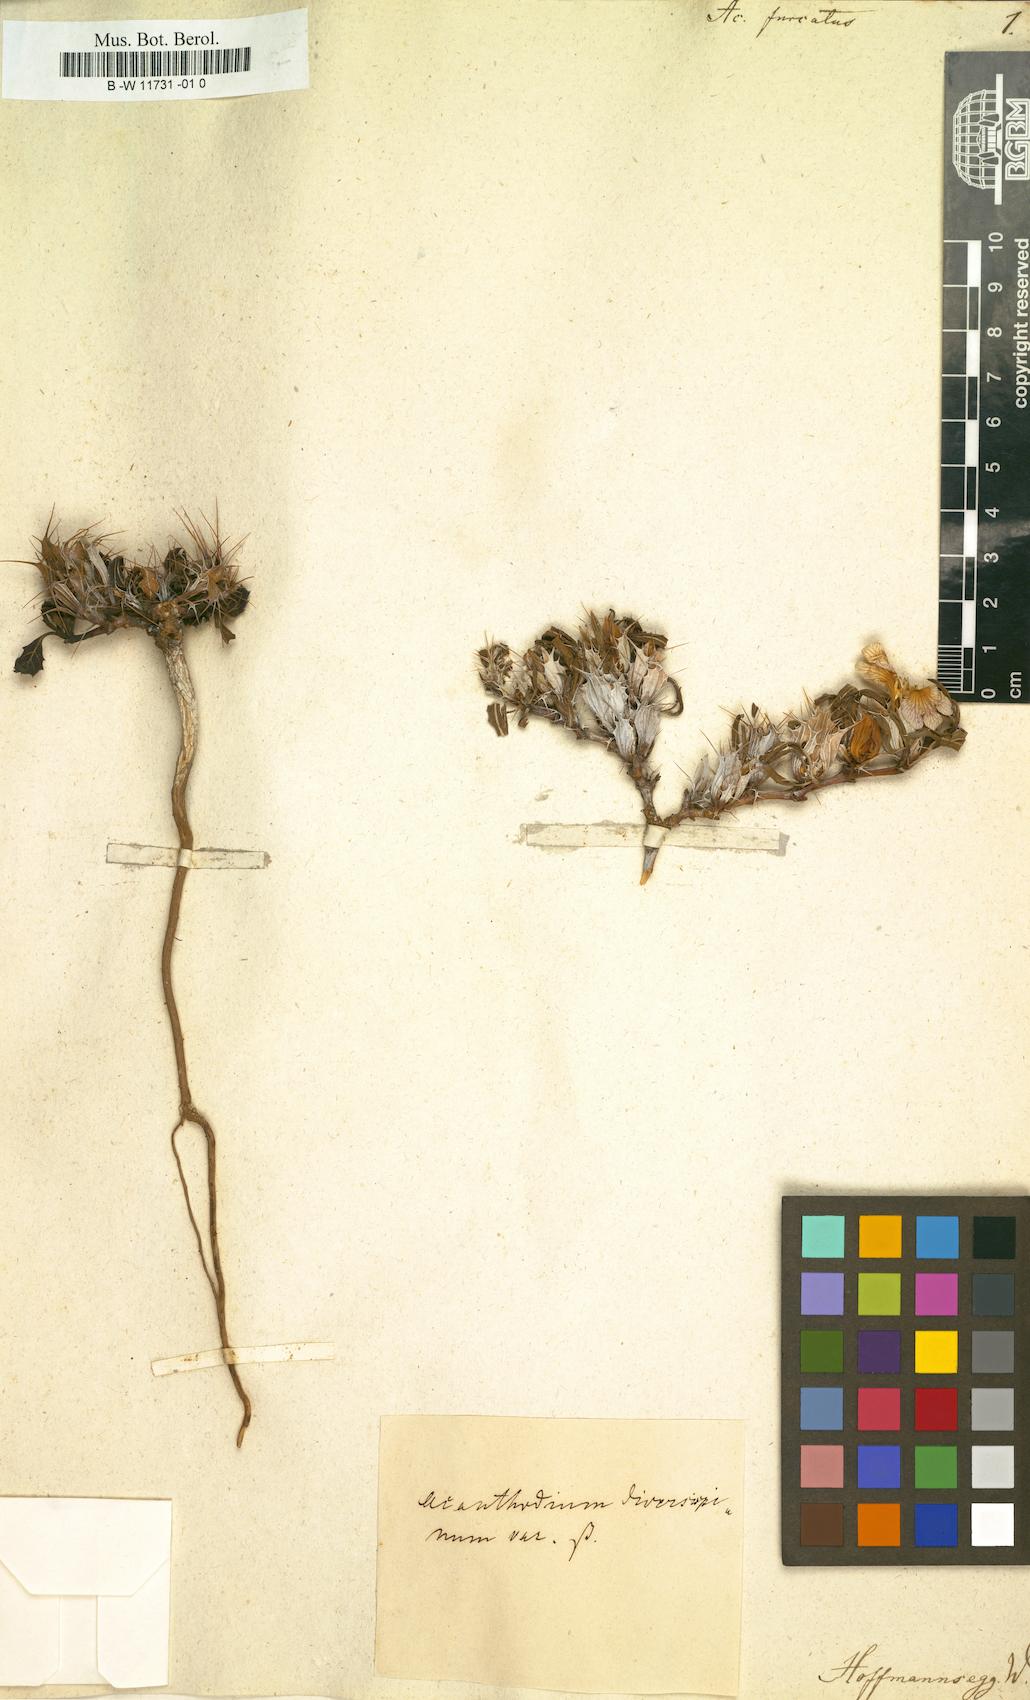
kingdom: Plantae
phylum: Tracheophyta
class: Magnoliopsida
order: Lamiales
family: Acanthaceae
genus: Blepharis
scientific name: Blepharis furcata
